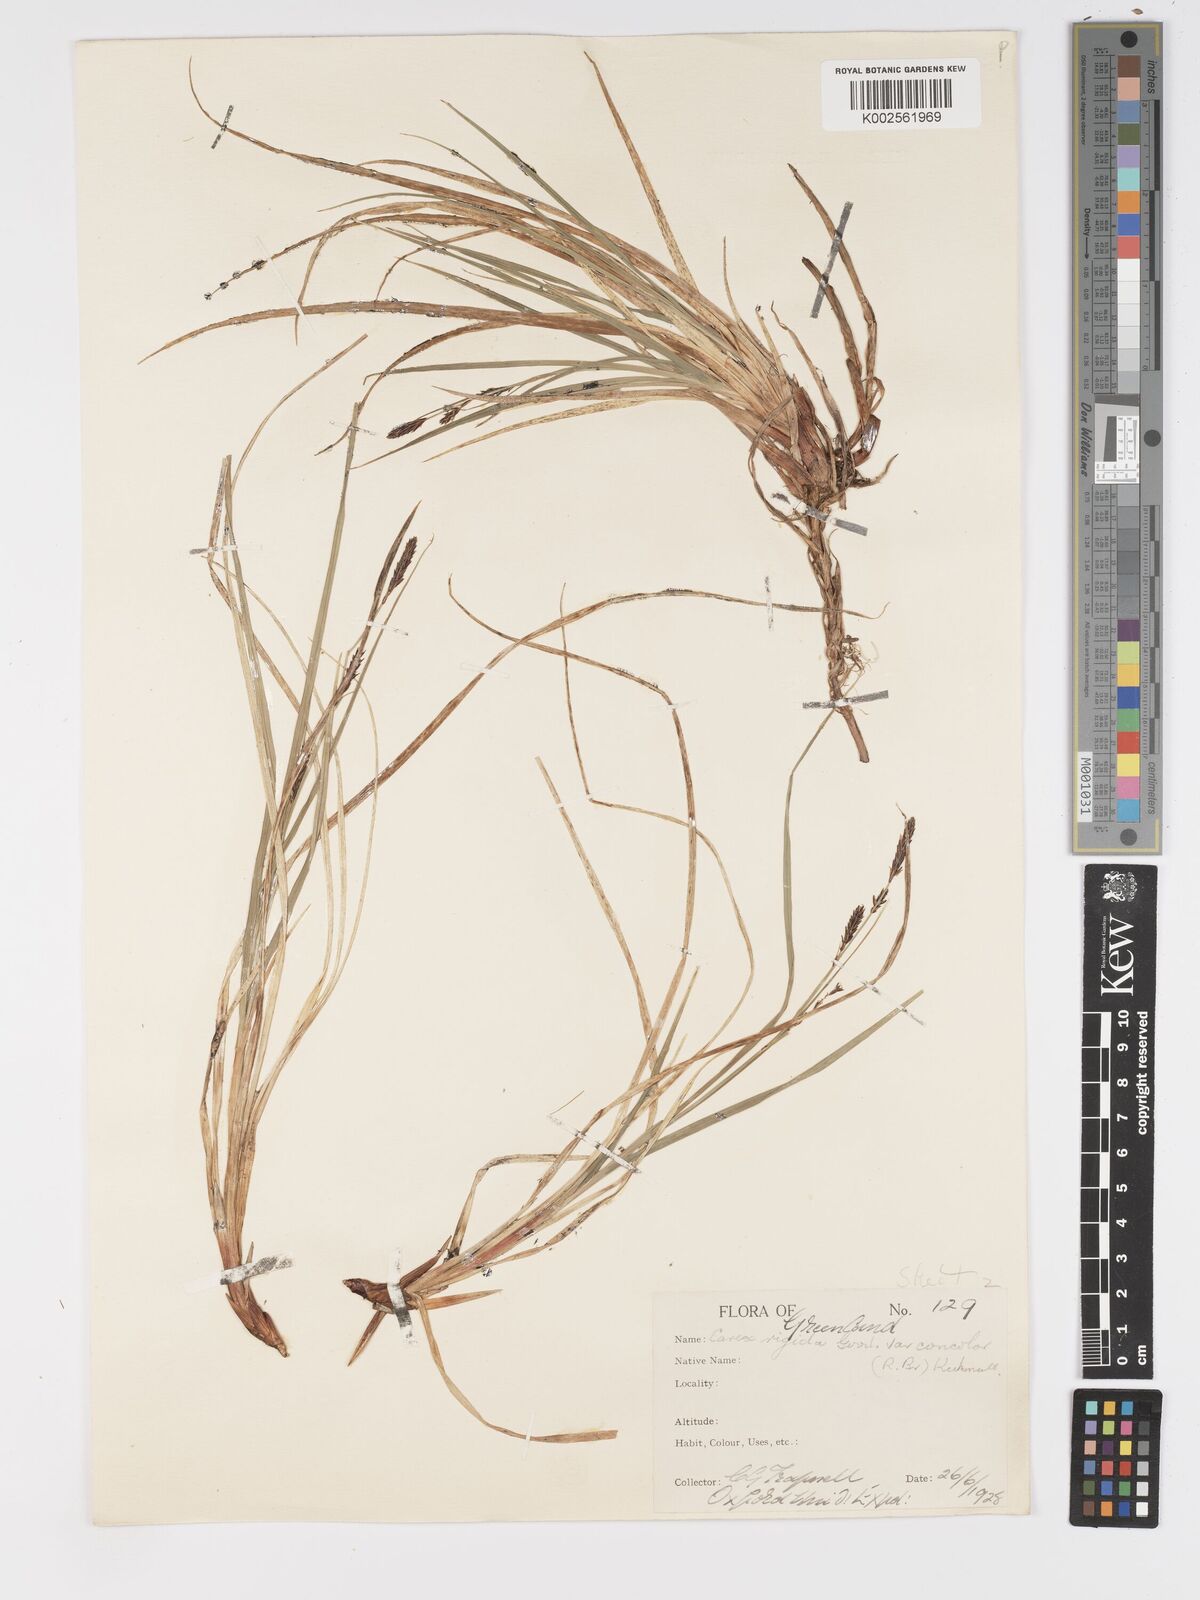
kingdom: Plantae
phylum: Tracheophyta
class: Liliopsida
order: Poales
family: Cyperaceae
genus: Carex
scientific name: Carex bigelowii
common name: Stiff sedge
